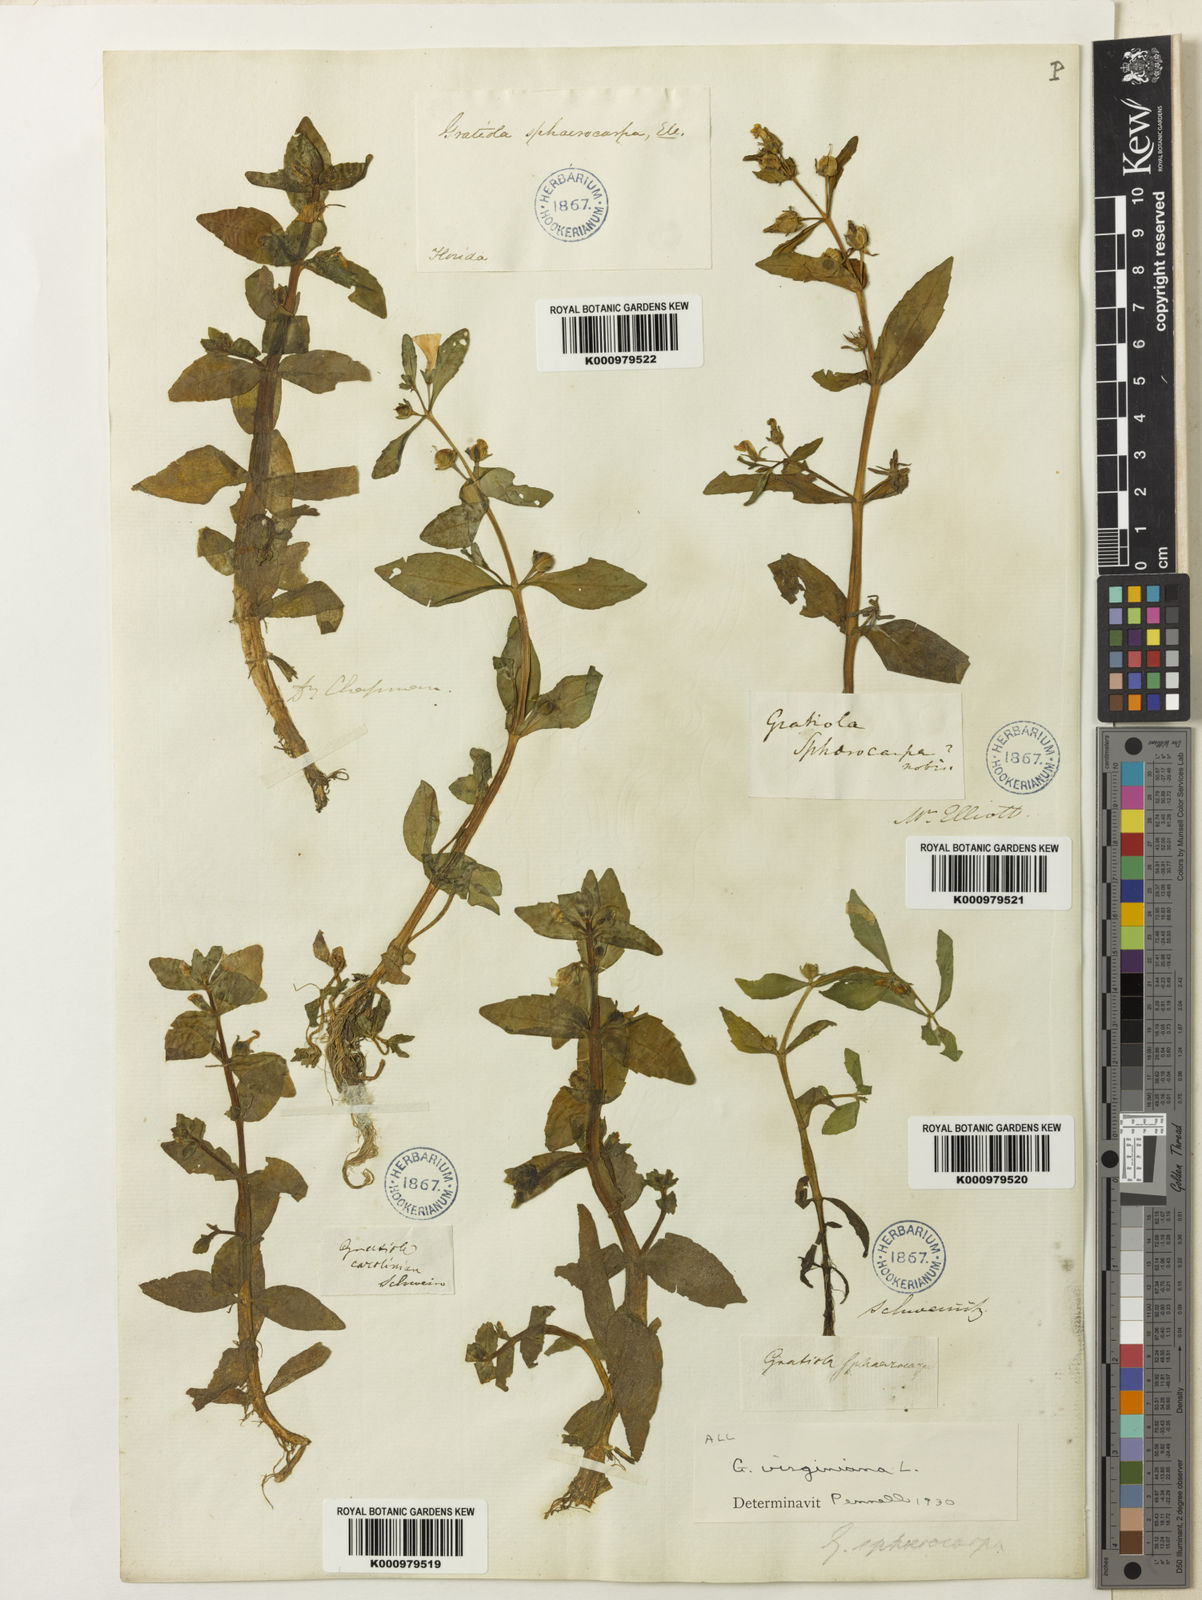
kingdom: Plantae
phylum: Tracheophyta
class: Magnoliopsida
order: Lamiales
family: Plantaginaceae
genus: Gratiola
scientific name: Gratiola virginiana
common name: Roundfruit hedgehyssop
